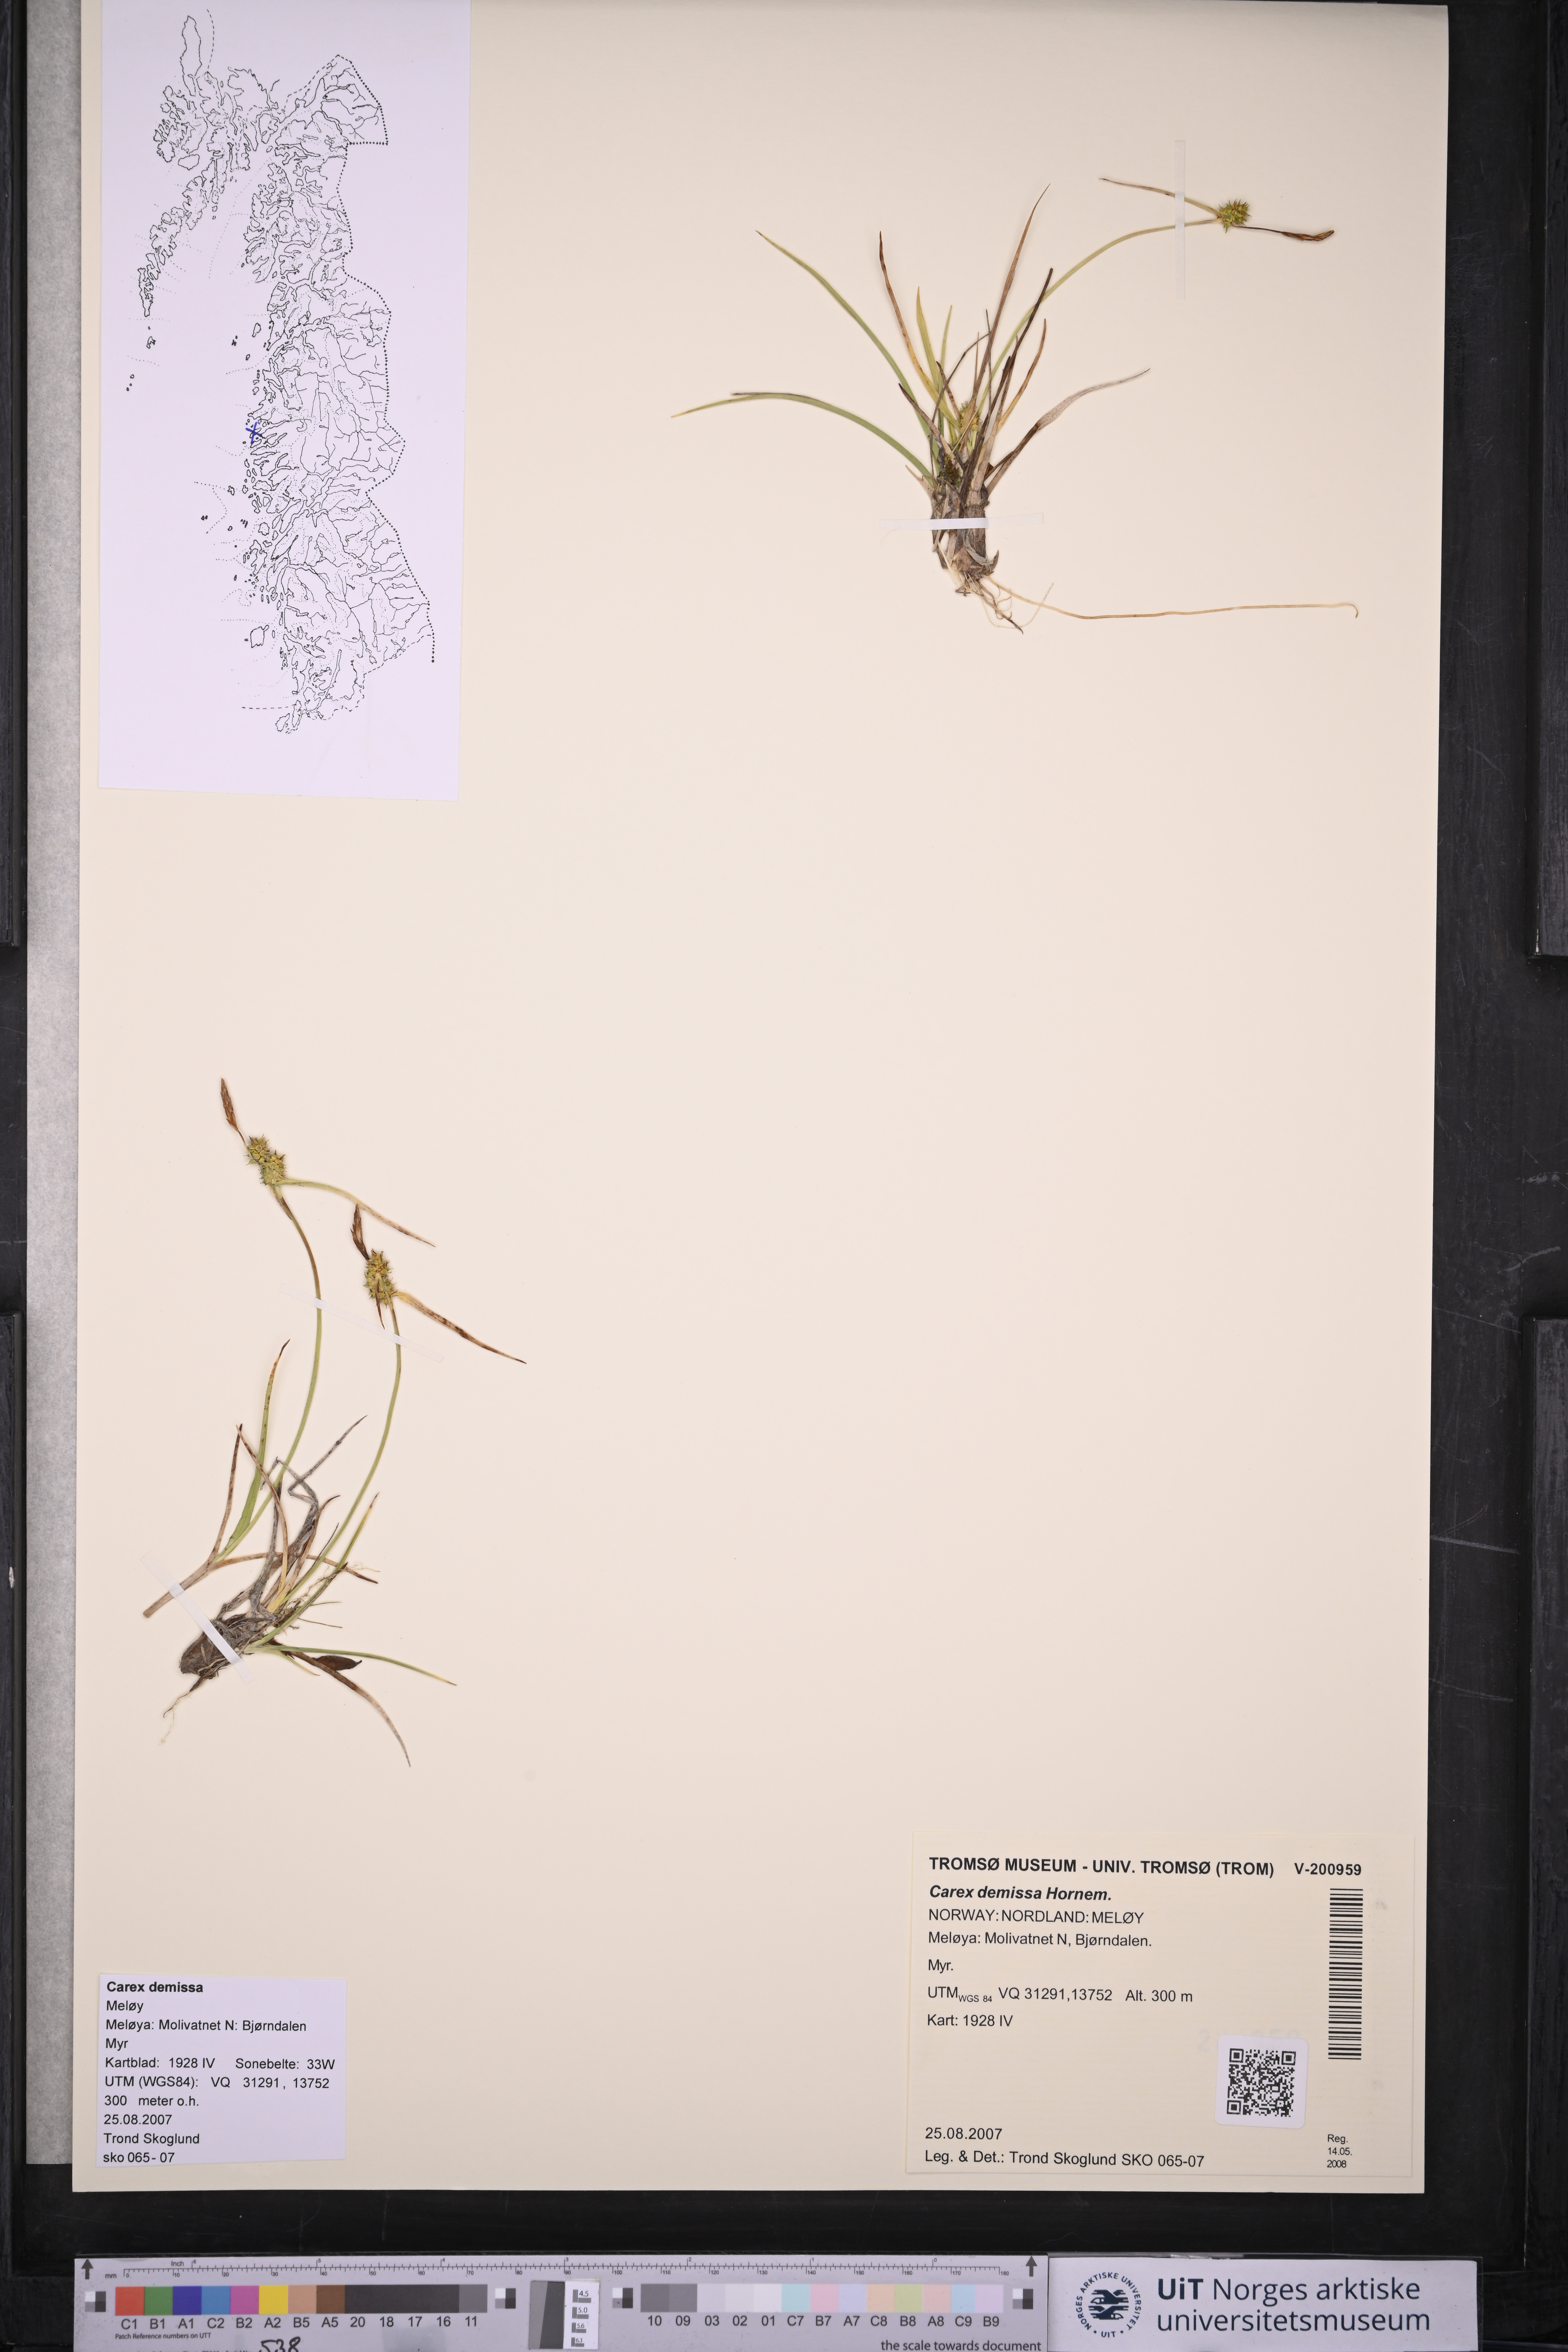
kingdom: Plantae
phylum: Tracheophyta
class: Liliopsida
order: Poales
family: Cyperaceae
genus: Carex
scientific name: Carex demissa
